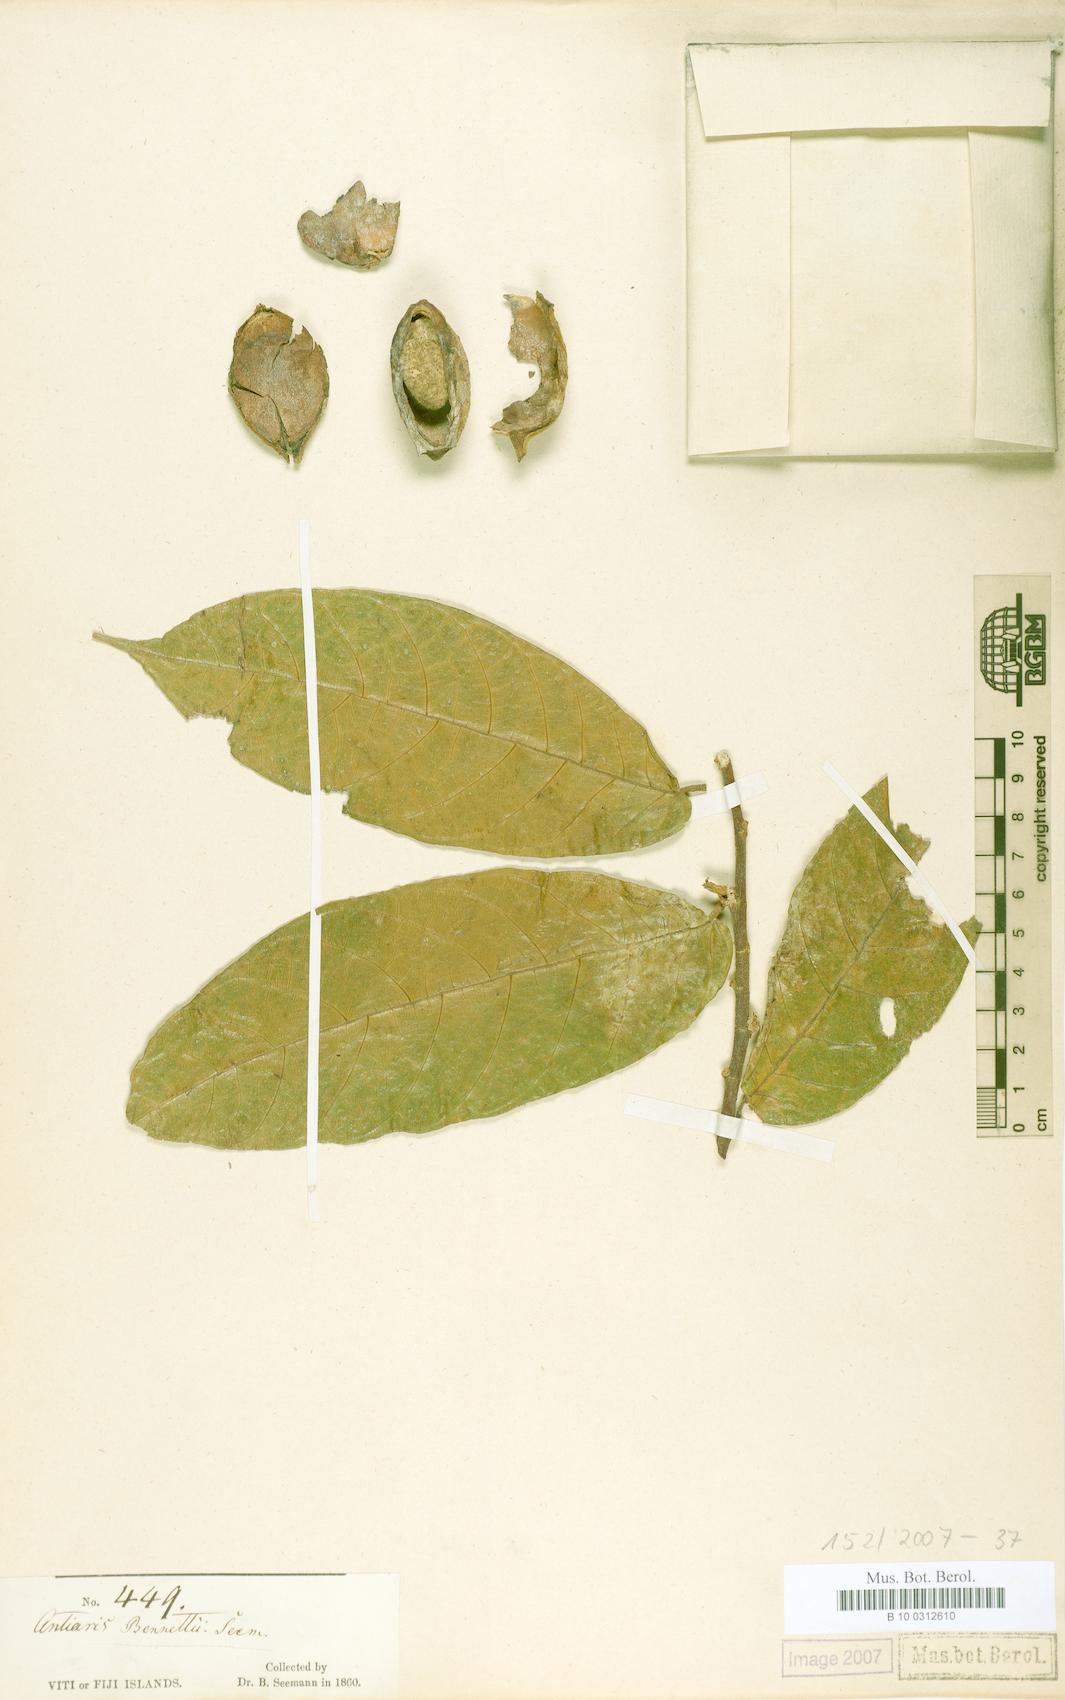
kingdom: Plantae
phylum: Tracheophyta
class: Magnoliopsida
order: Rosales
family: Moraceae
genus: Antiaris
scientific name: Antiaris toxicaria
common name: Sackingtree
